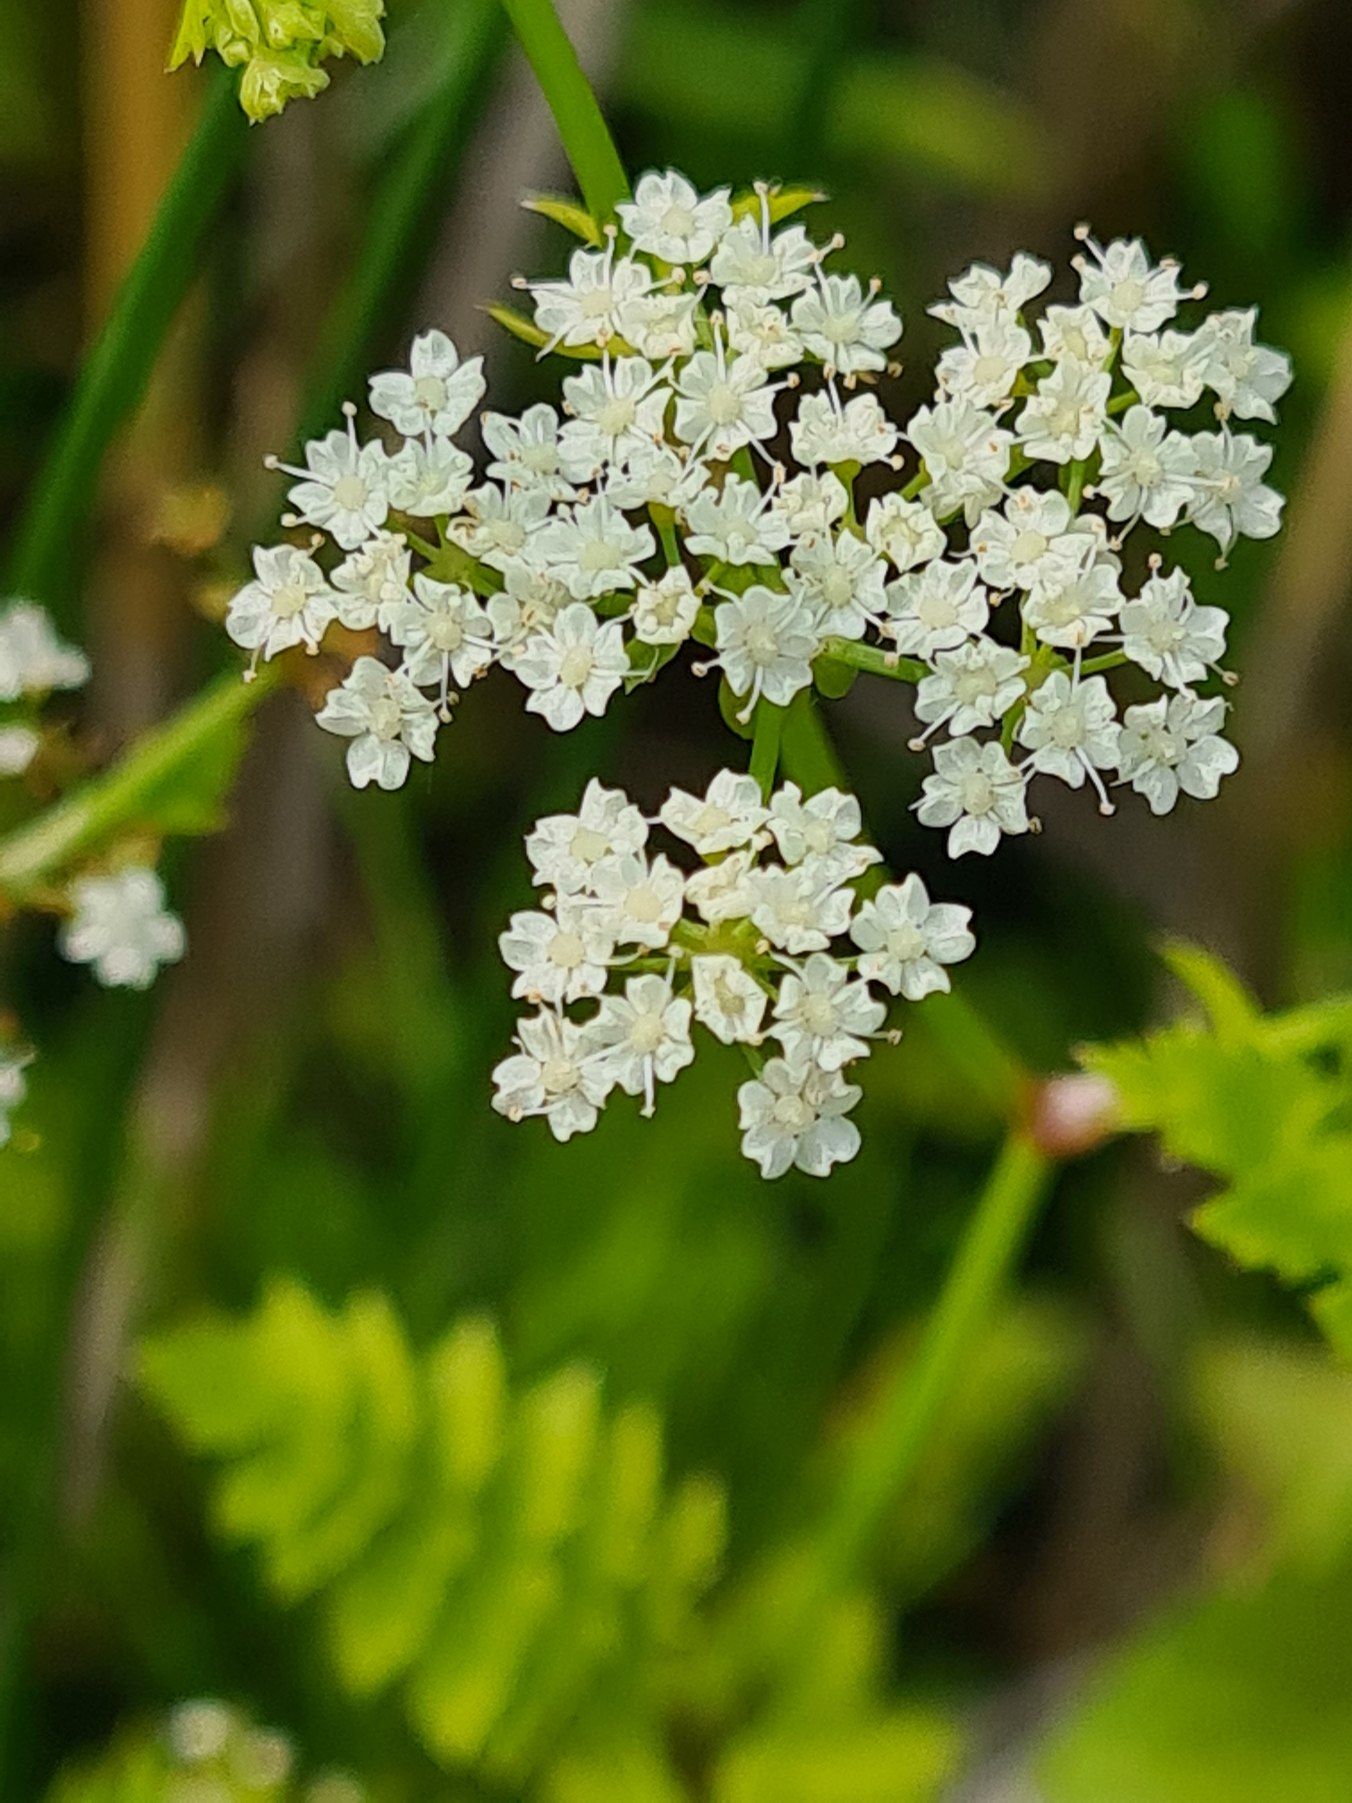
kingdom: Plantae
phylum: Tracheophyta
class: Magnoliopsida
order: Apiales
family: Apiaceae
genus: Berula
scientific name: Berula erecta
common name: Sideskærm
